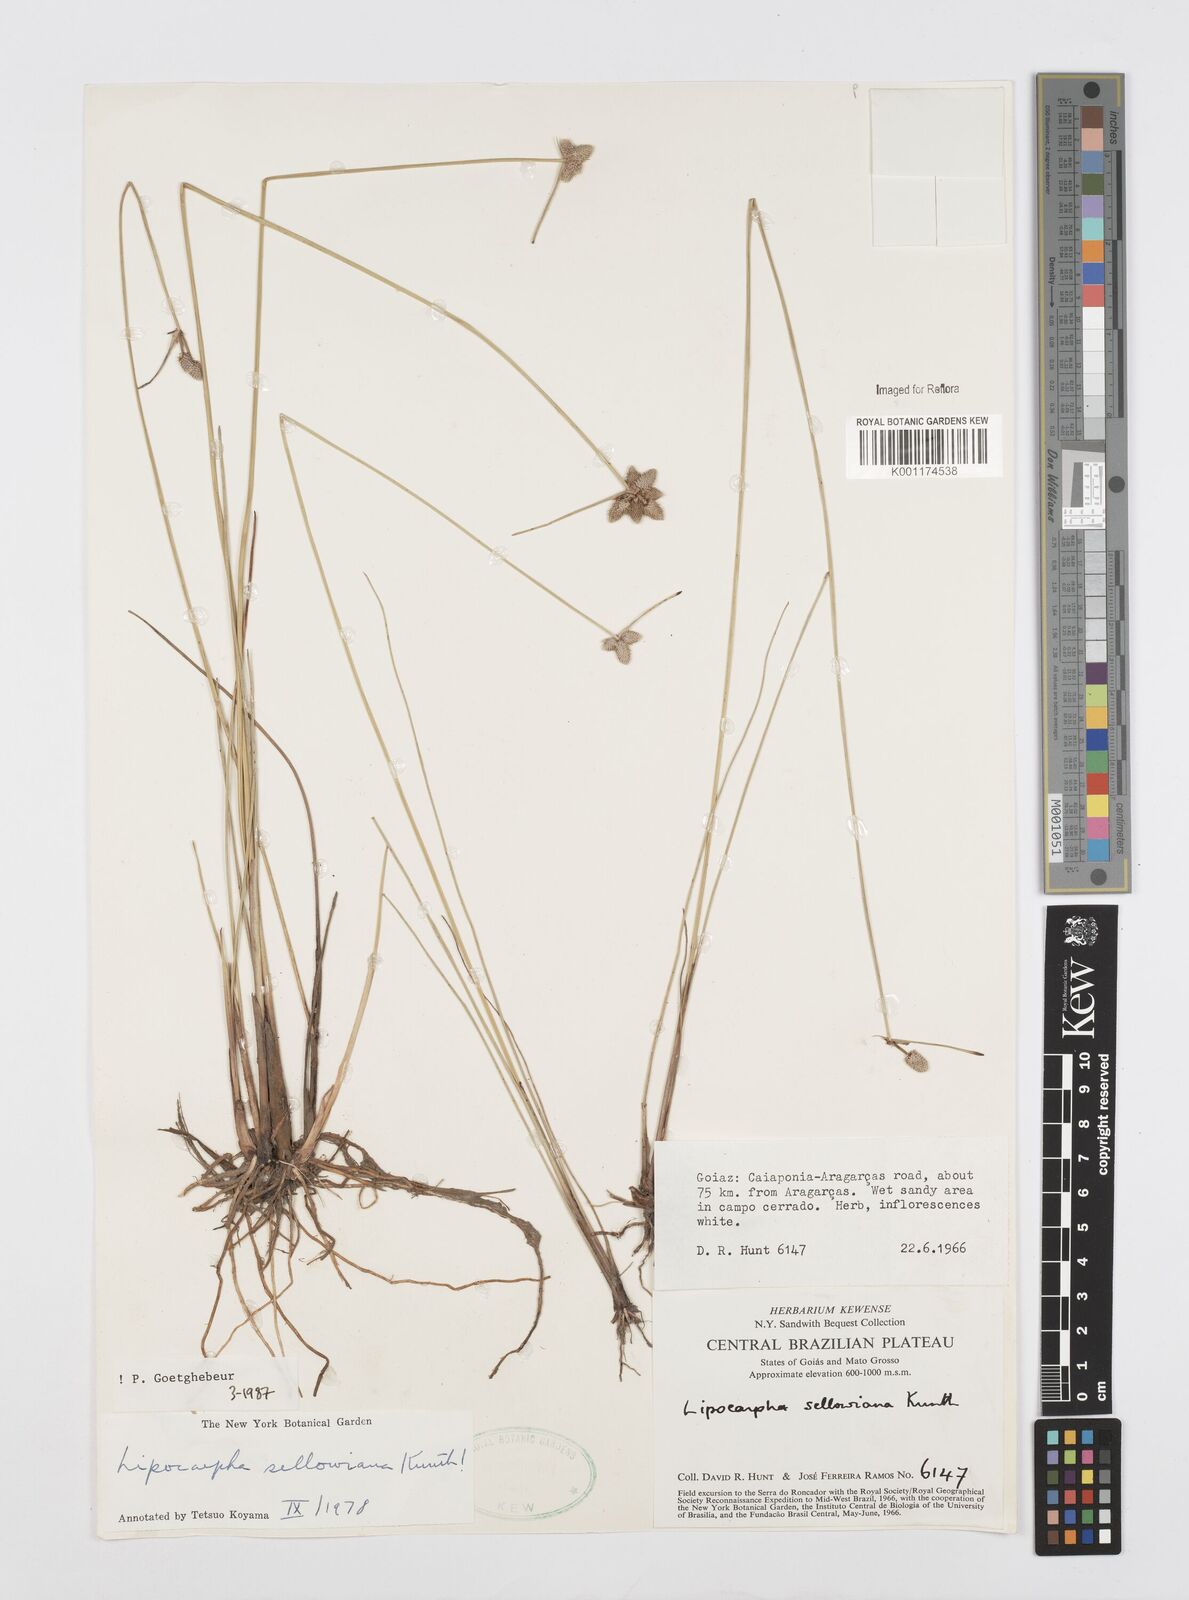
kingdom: Plantae
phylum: Tracheophyta
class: Liliopsida
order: Poales
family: Cyperaceae
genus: Cyperus
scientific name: Cyperus lanceolatus
